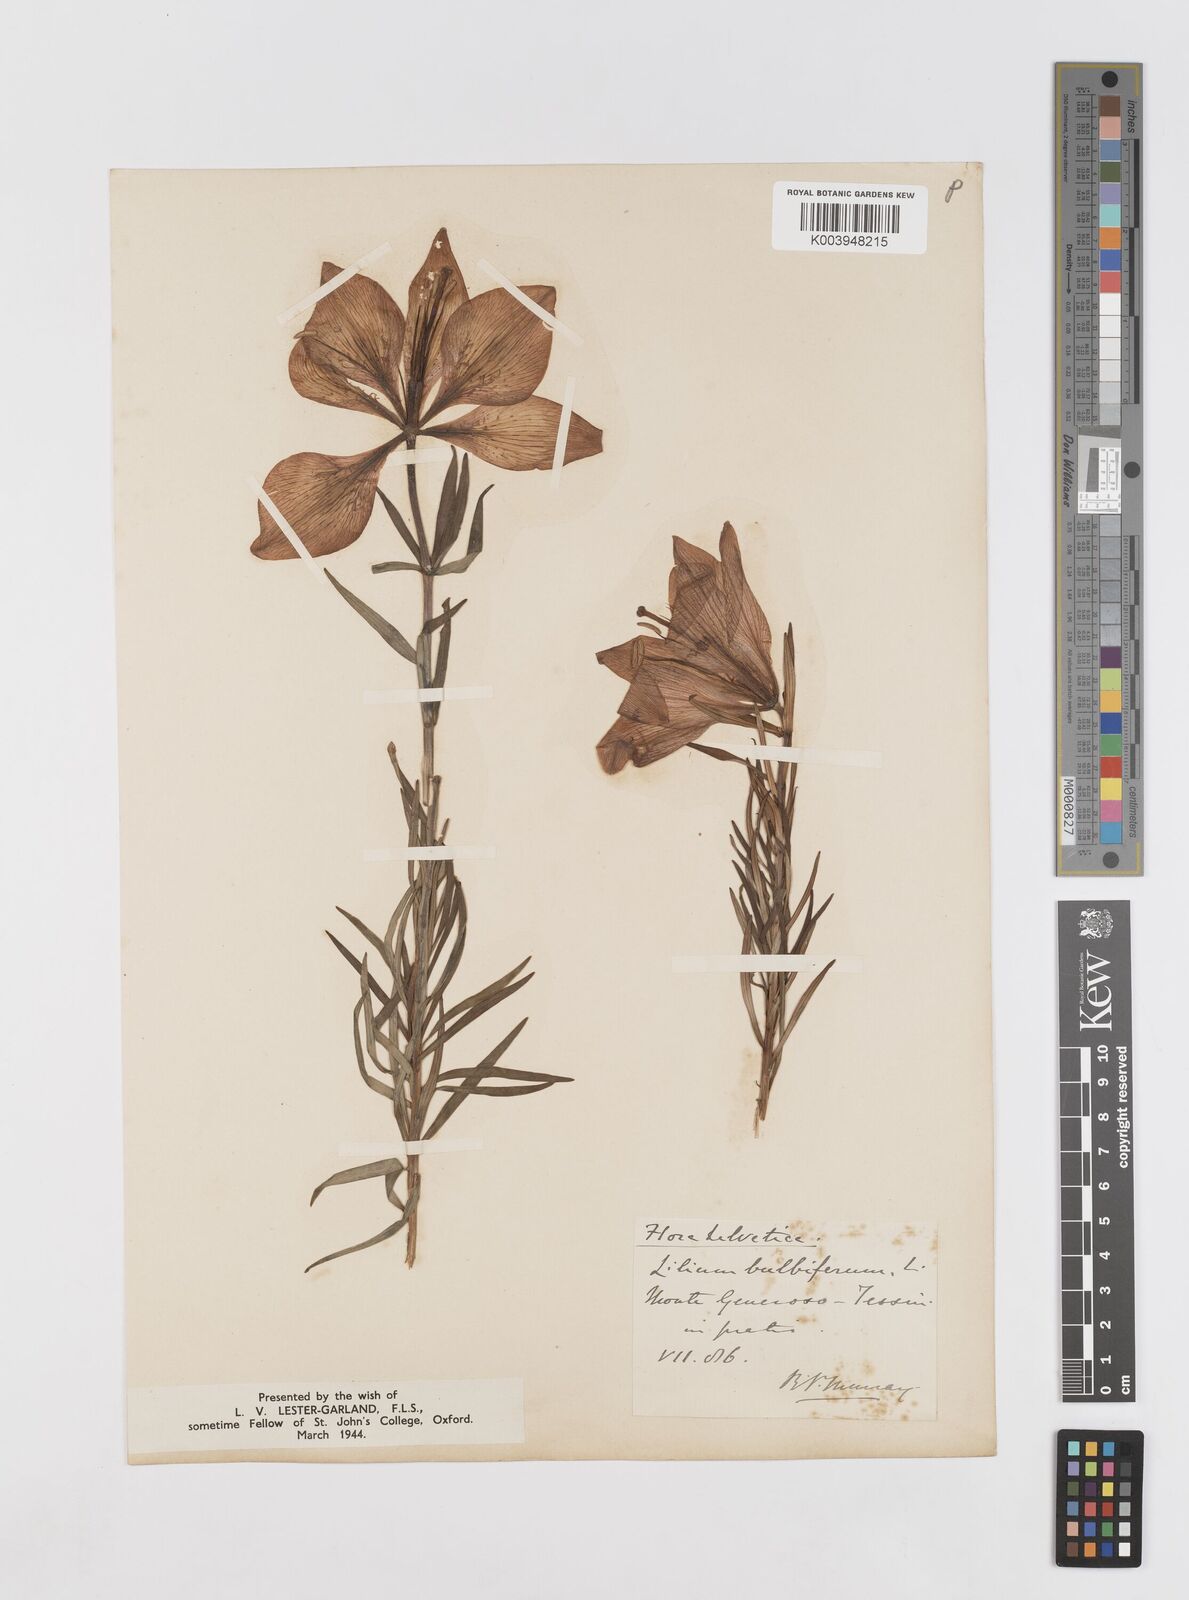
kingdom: Plantae
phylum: Tracheophyta
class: Liliopsida
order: Liliales
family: Liliaceae
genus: Lilium
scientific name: Lilium bulbiferum
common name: Orange lily
